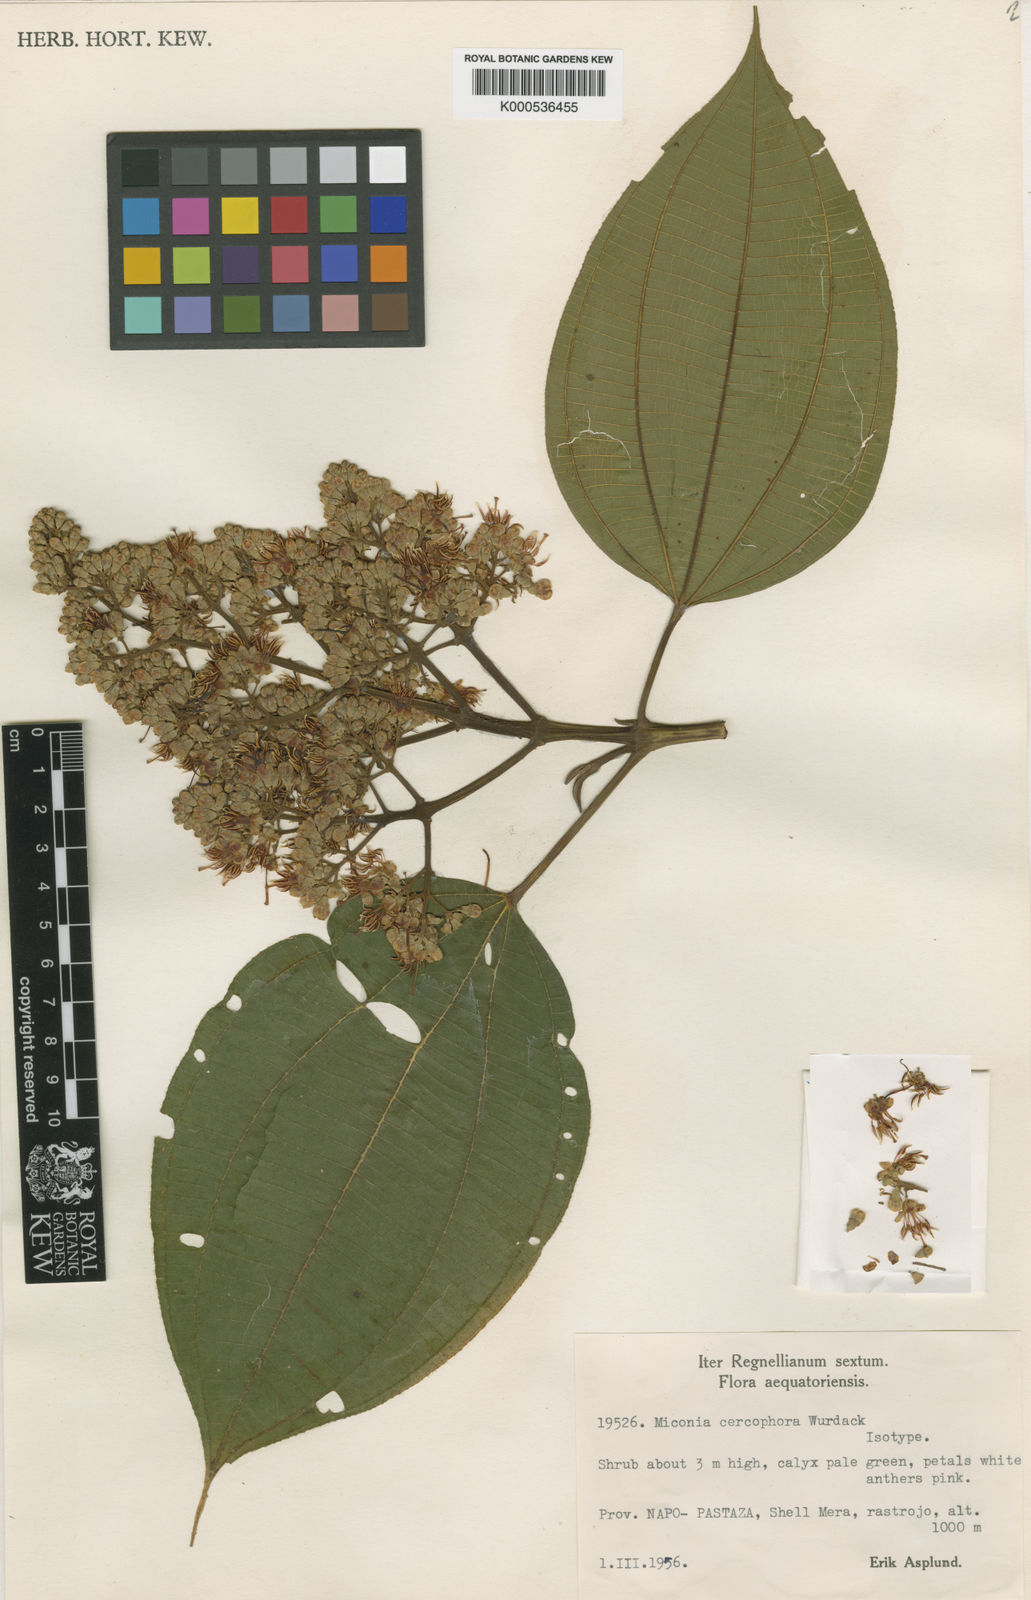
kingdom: Plantae
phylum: Tracheophyta
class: Magnoliopsida
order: Myrtales
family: Melastomataceae
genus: Miconia
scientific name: Miconia cercophora
